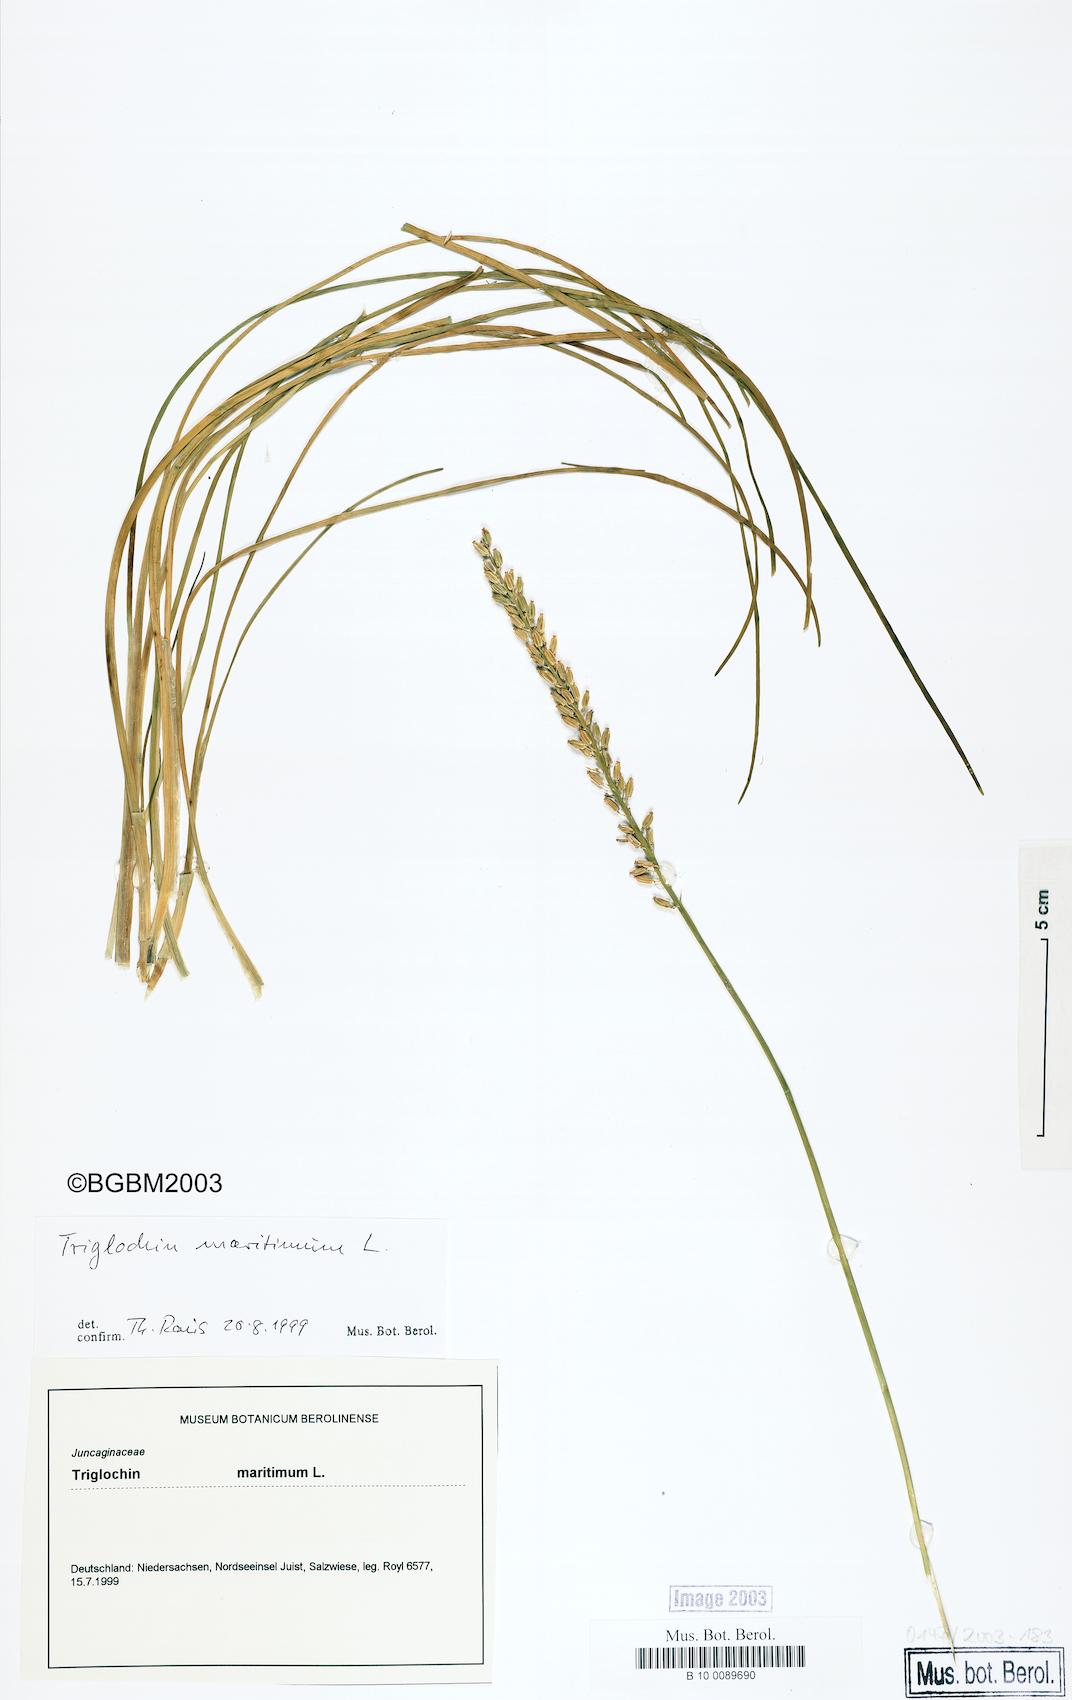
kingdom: Plantae
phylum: Tracheophyta
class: Liliopsida
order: Alismatales
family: Juncaginaceae
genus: Triglochin
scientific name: Triglochin maritima
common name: Sea arrowgrass
